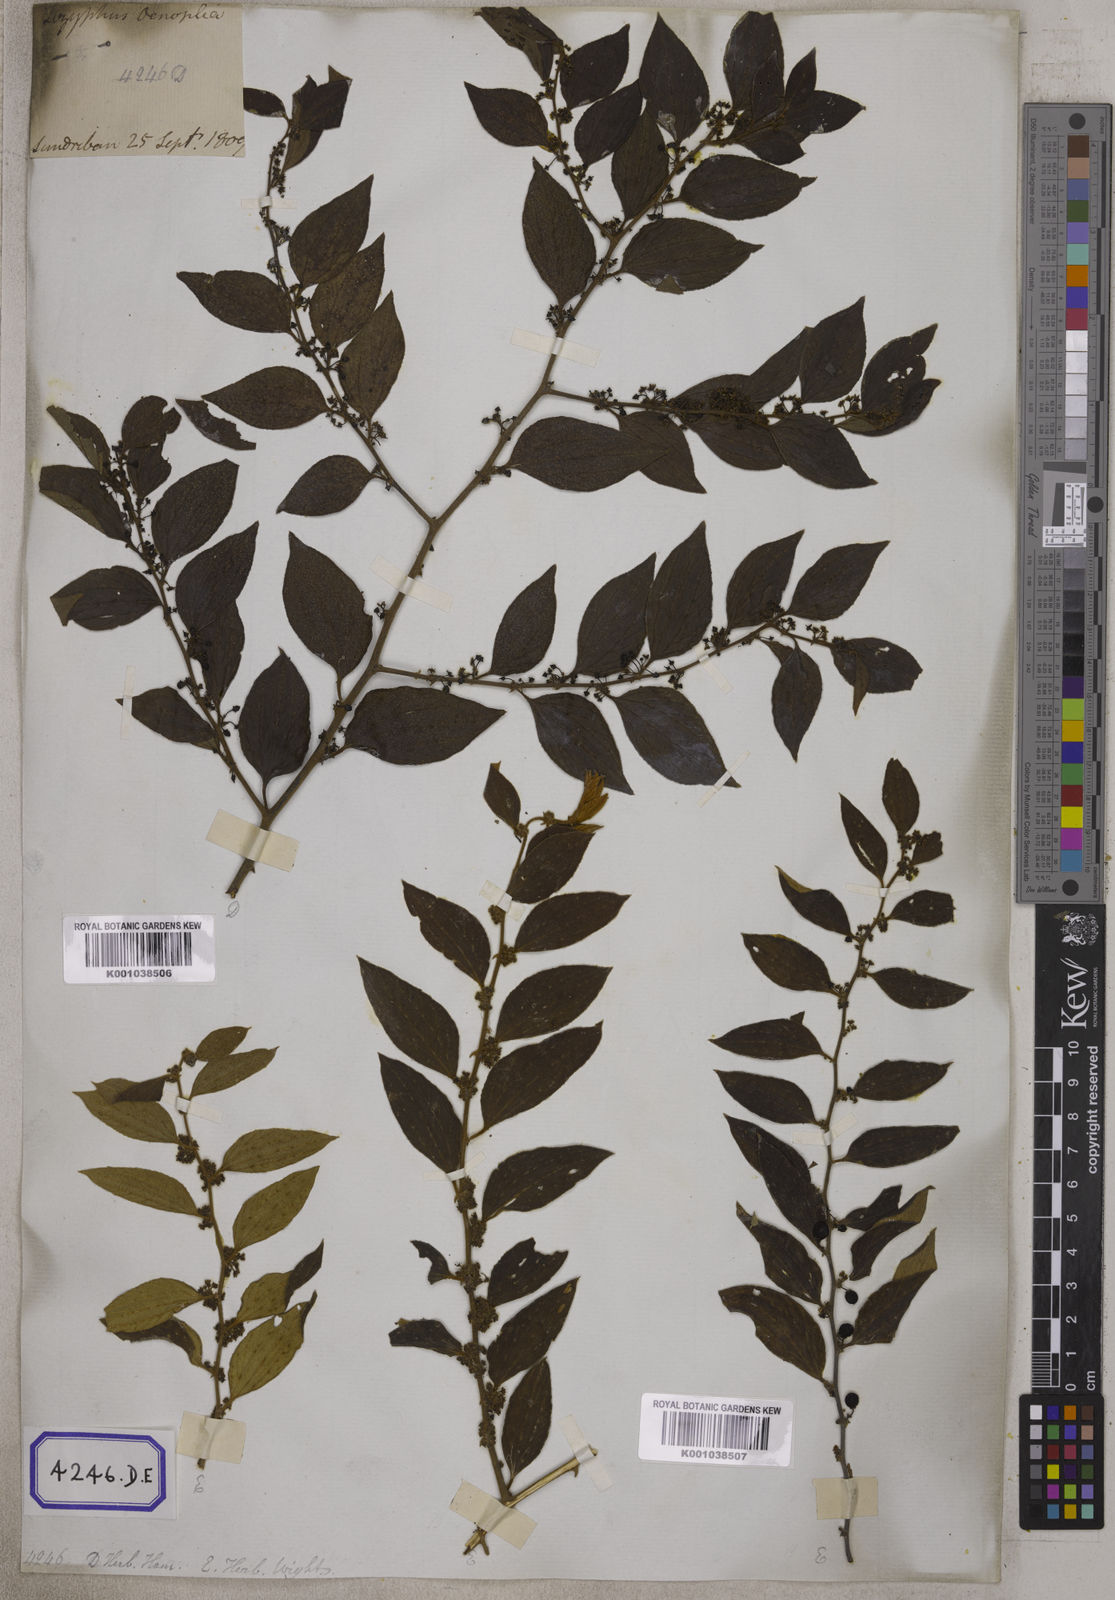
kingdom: Plantae
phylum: Tracheophyta
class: Magnoliopsida
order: Rosales
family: Rhamnaceae
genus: Ziziphus
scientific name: Ziziphus
